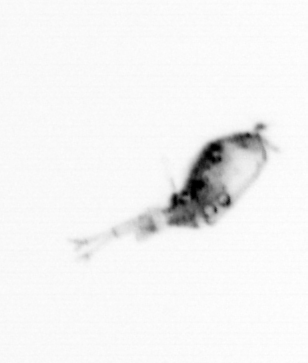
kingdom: Animalia
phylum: Arthropoda
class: Copepoda
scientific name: Copepoda
